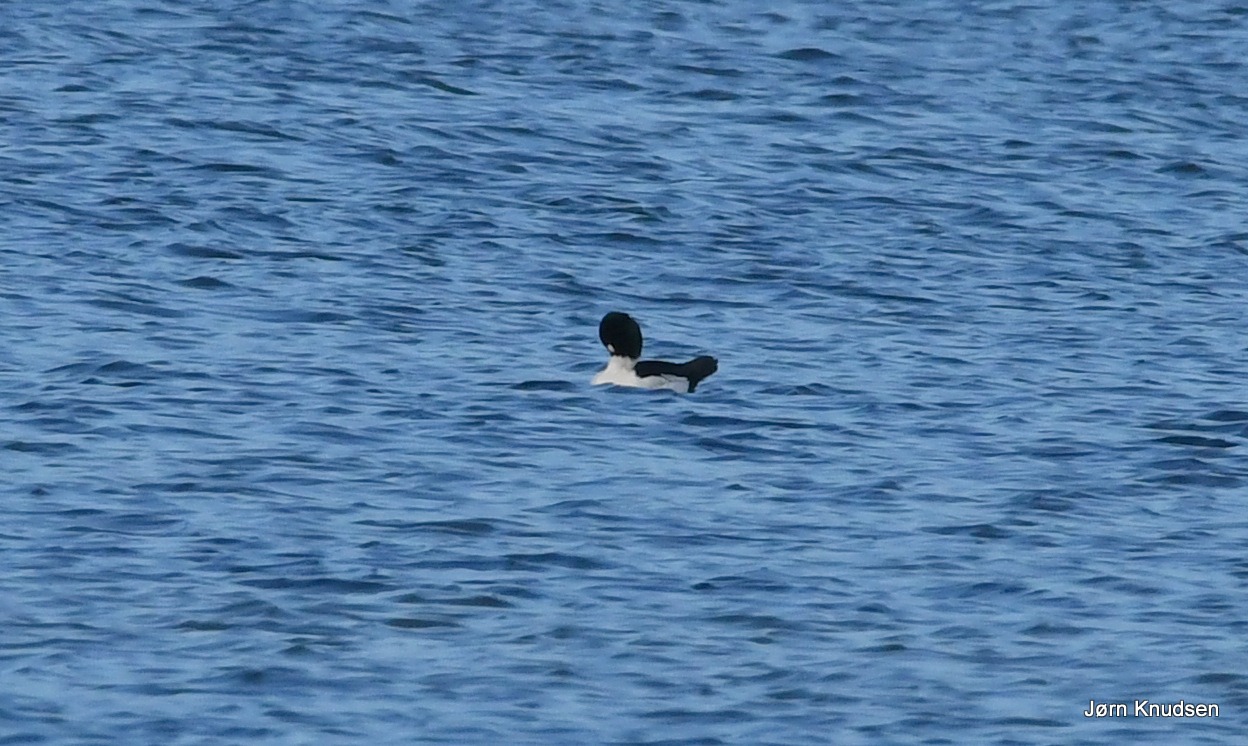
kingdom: Animalia
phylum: Chordata
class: Aves
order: Anseriformes
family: Anatidae
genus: Bucephala
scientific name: Bucephala clangula
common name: Hvinand
